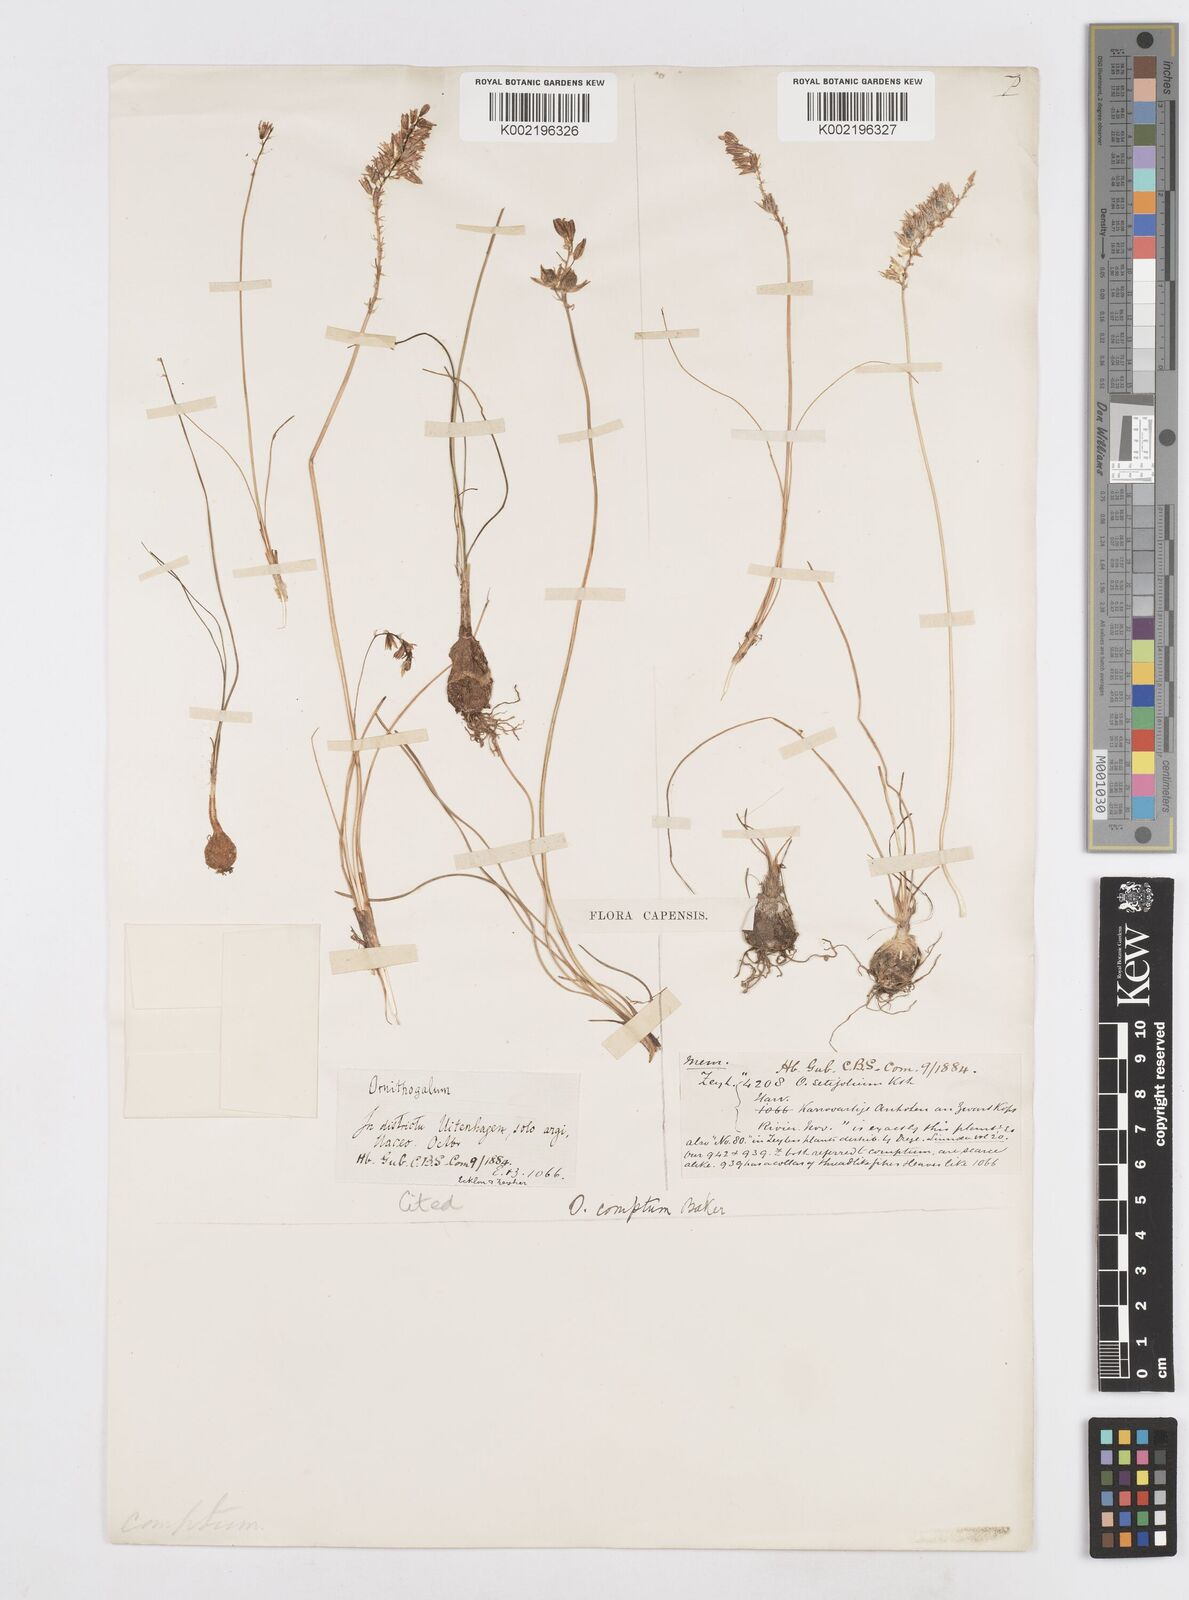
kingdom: Plantae
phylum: Tracheophyta
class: Liliopsida
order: Asparagales
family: Asparagaceae
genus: Ornithogalum
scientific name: Ornithogalum juncifolium
